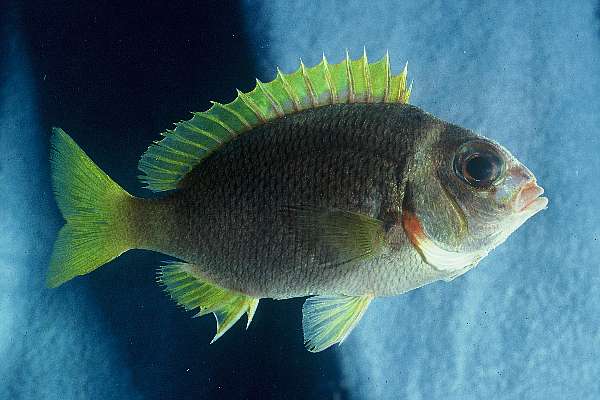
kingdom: Animalia
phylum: Chordata
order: Perciformes
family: Nemipteridae
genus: Scolopsis
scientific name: Scolopsis vosmeri
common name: Whitecheek monocle bream
